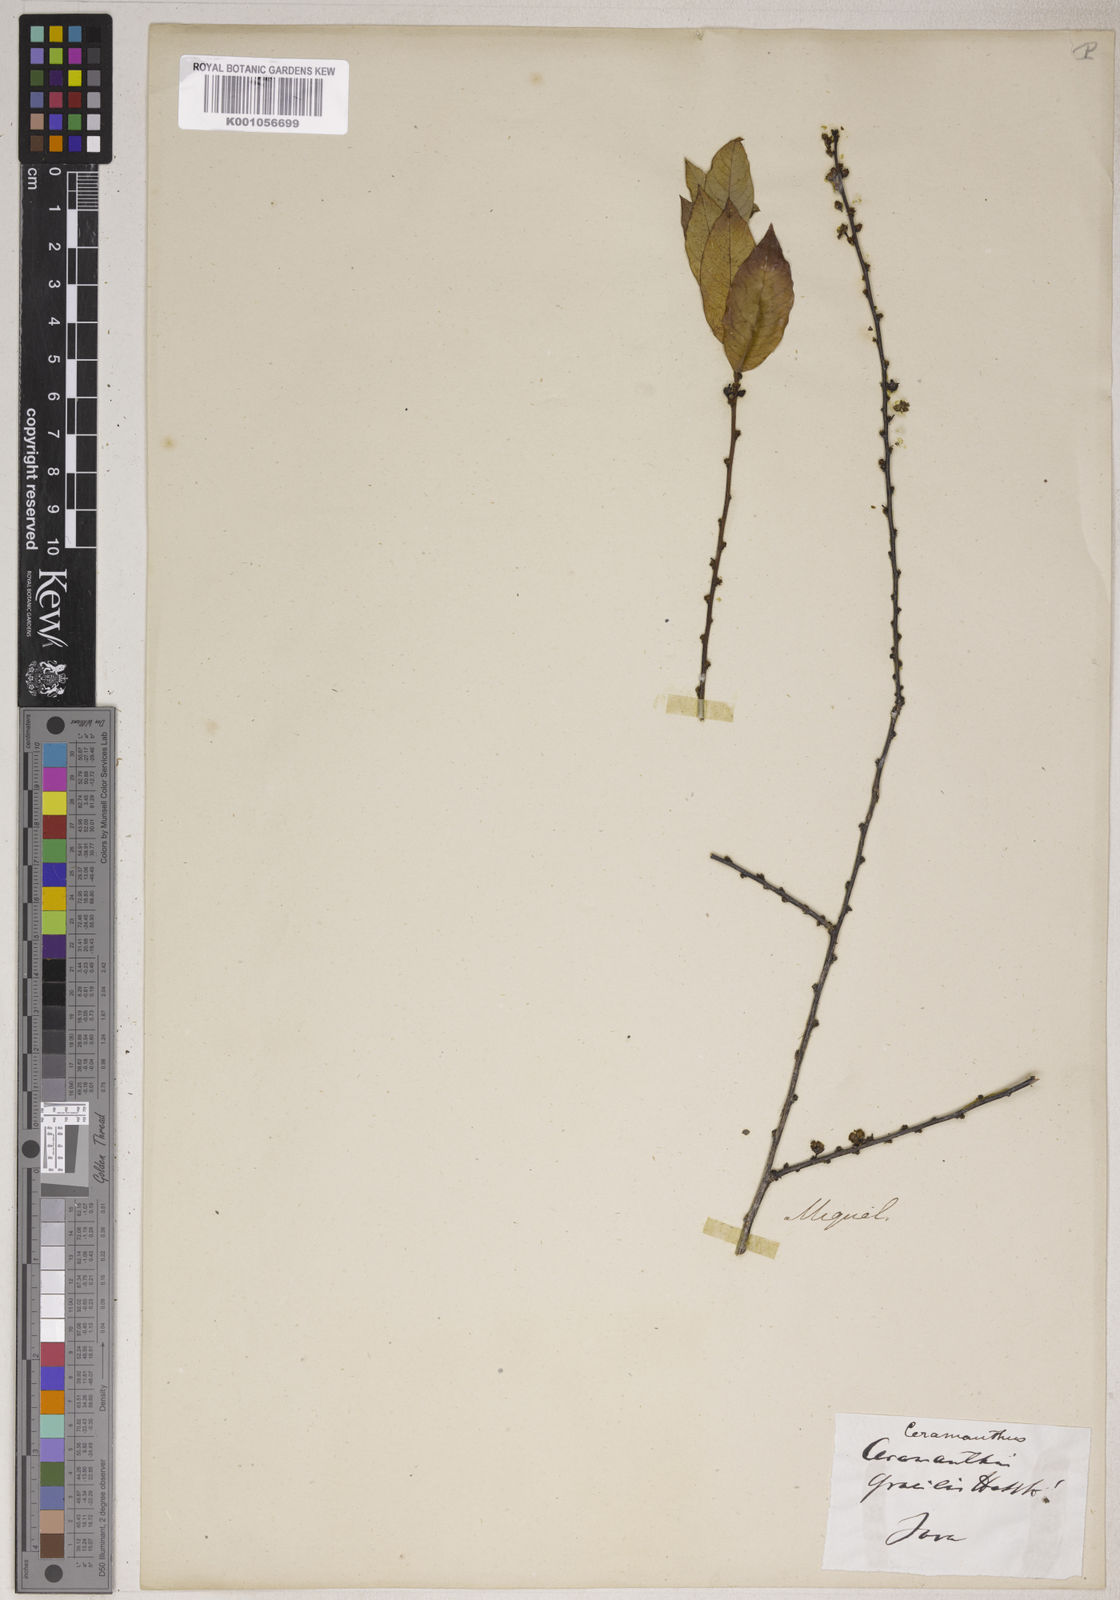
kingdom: Plantae
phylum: Tracheophyta
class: Magnoliopsida
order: Malpighiales
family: Phyllanthaceae
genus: Phyllanthus
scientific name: Phyllanthus albidiscus
